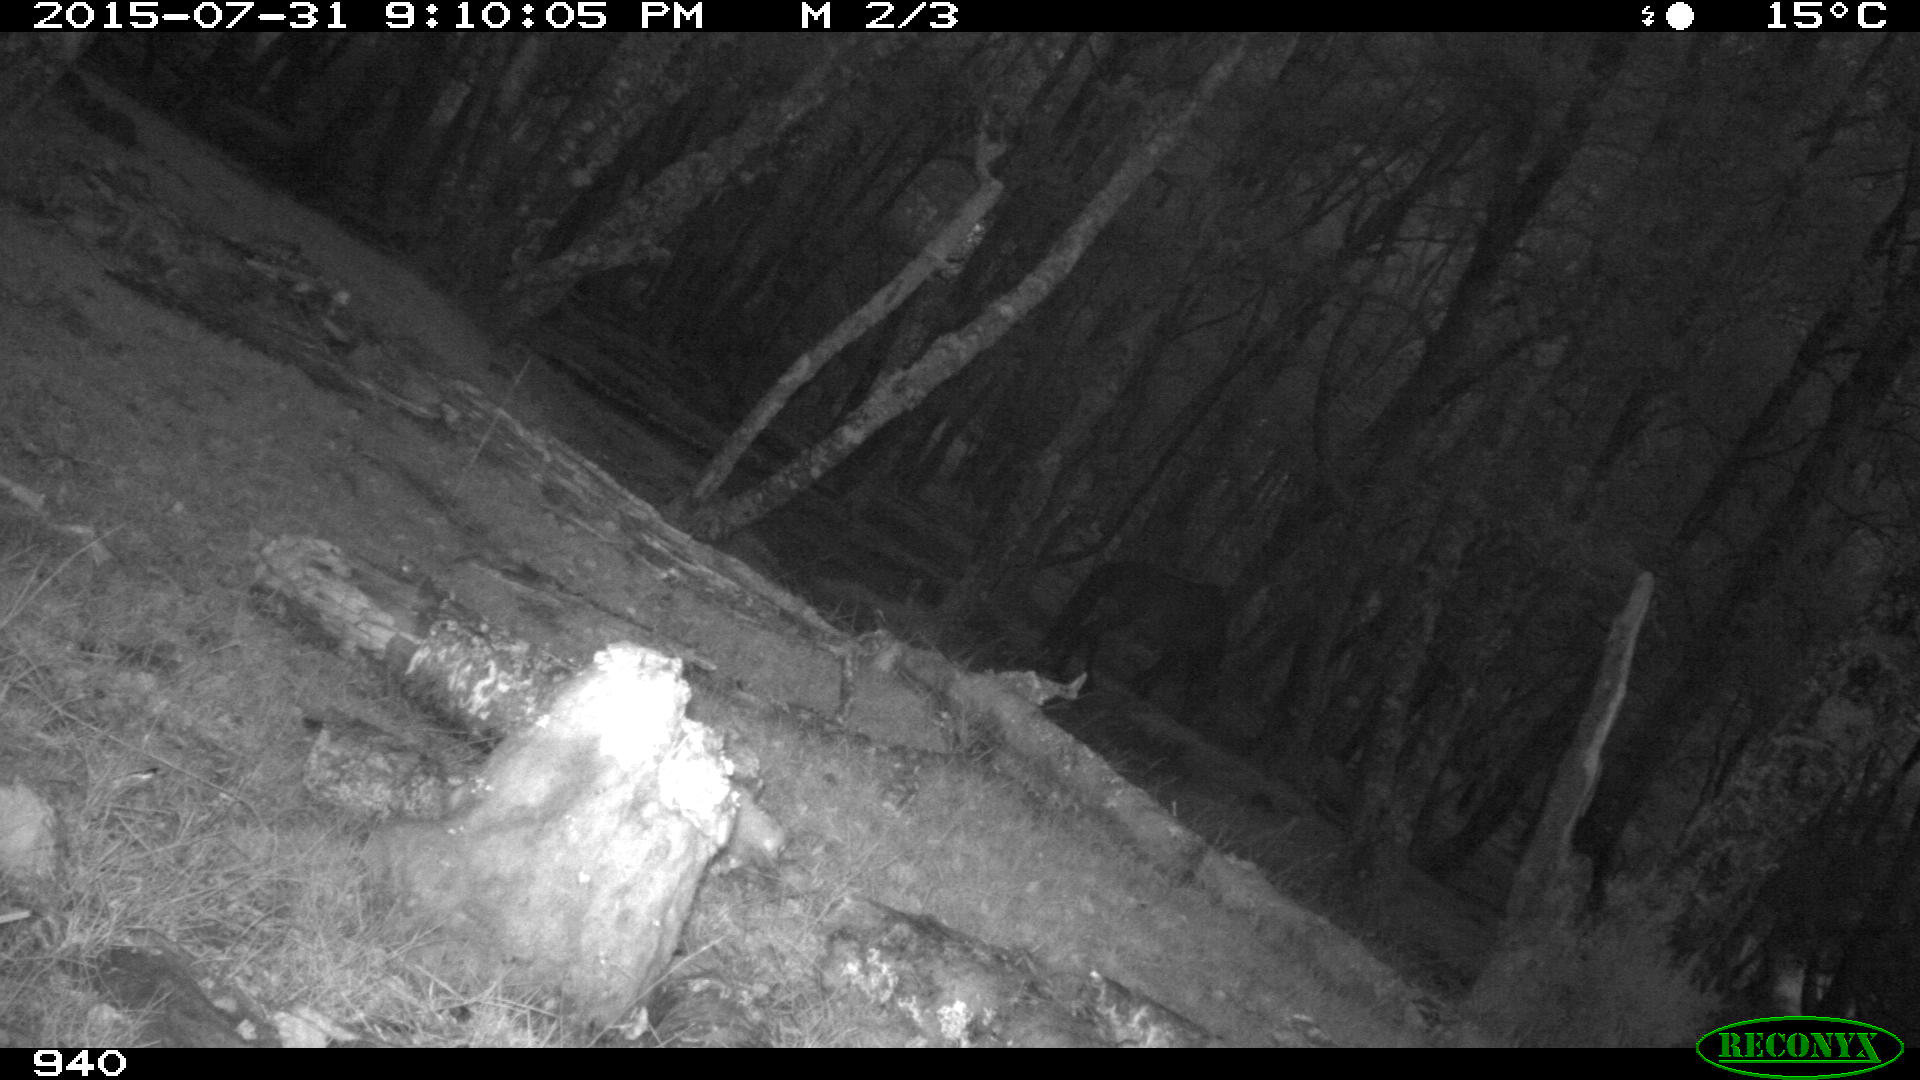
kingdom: Animalia
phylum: Chordata
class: Mammalia
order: Perissodactyla
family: Equidae
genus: Equus
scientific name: Equus caballus
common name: Horse
